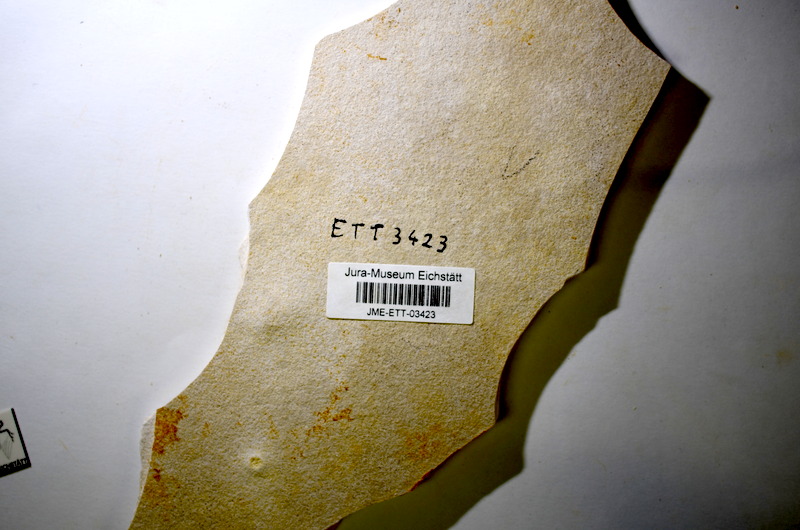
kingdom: Animalia
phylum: Chordata
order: Salmoniformes
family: Orthogonikleithridae
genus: Orthogonikleithrus
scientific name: Orthogonikleithrus hoelli
